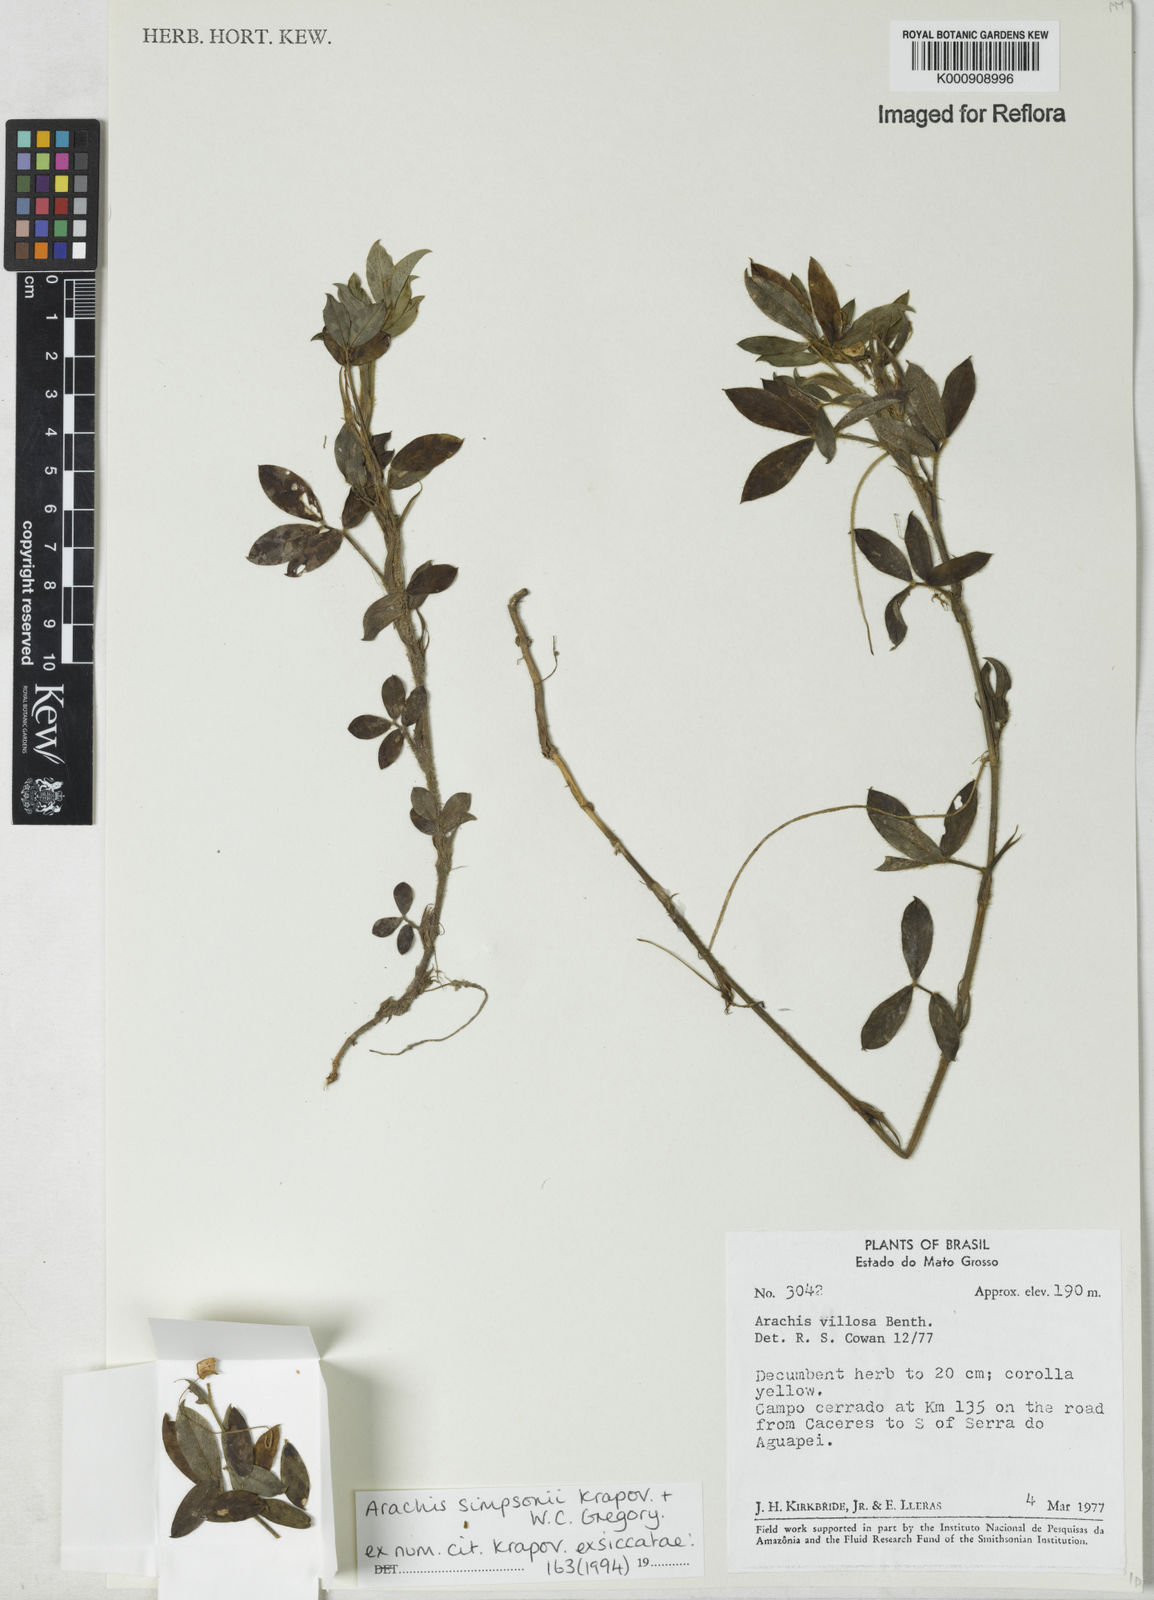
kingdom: Plantae
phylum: Tracheophyta
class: Magnoliopsida
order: Fabales
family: Fabaceae
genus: Arachis
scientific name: Arachis simpsonii
